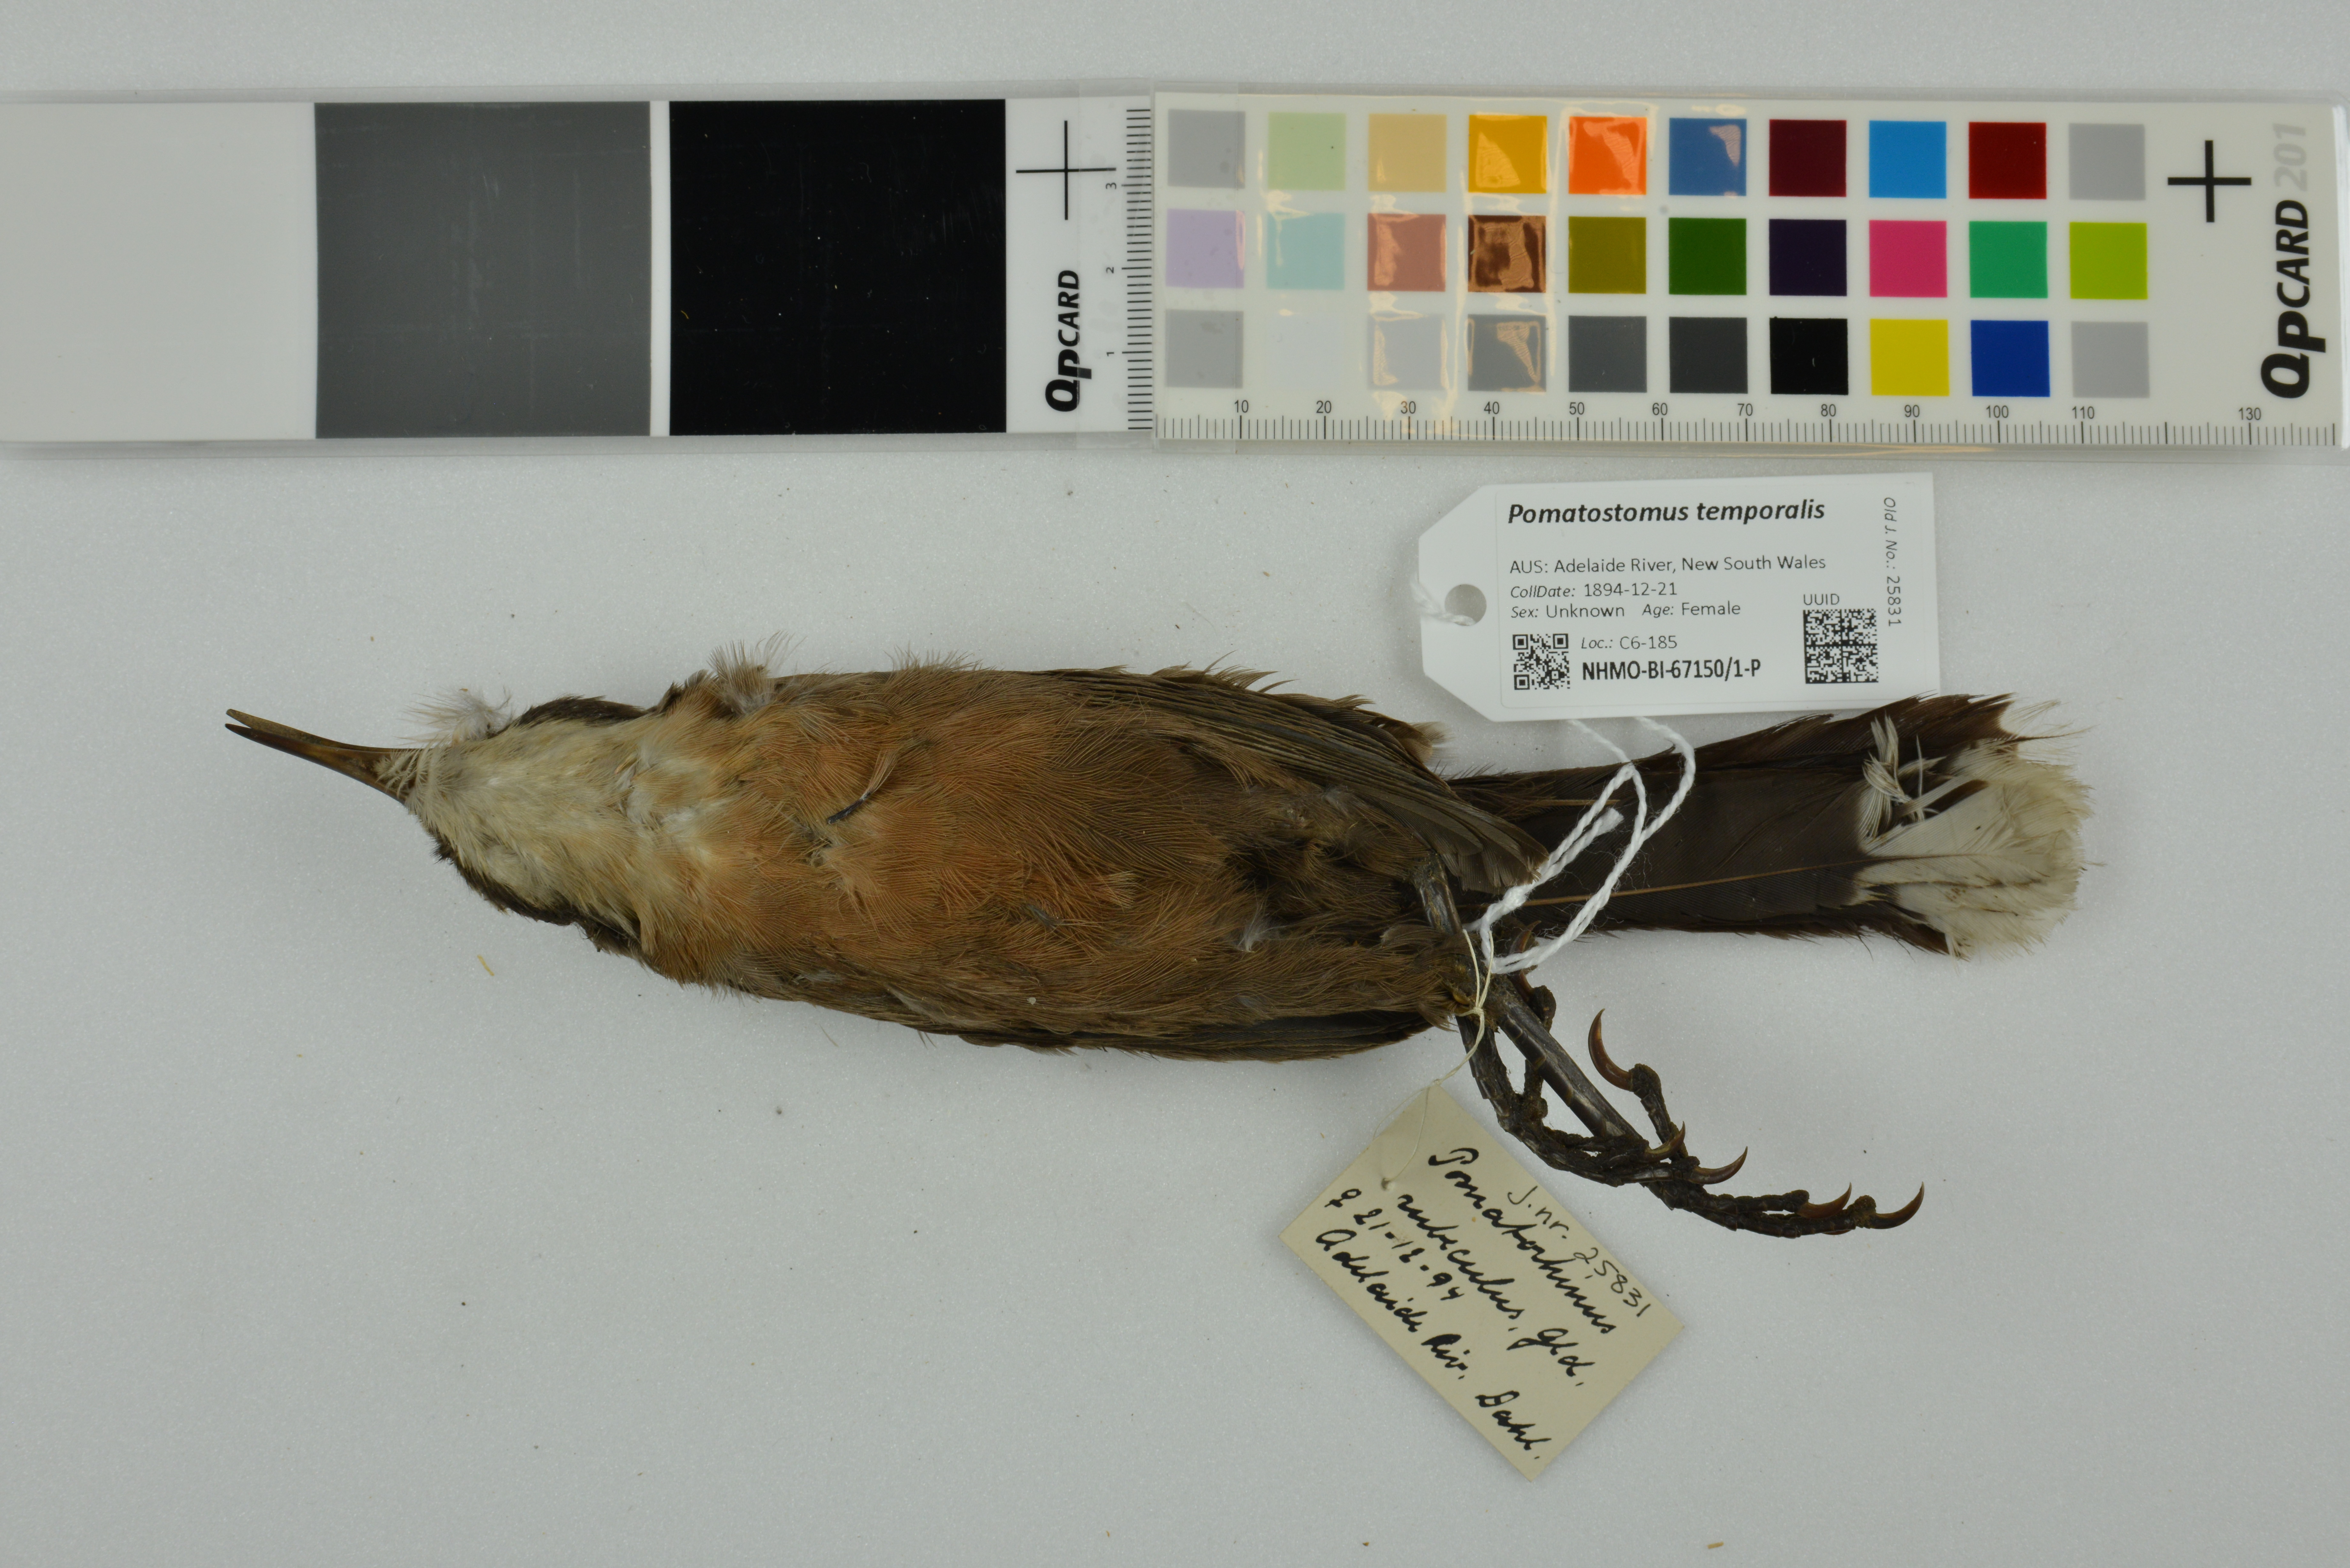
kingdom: Animalia
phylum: Chordata
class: Aves
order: Passeriformes
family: Pomatostomidae
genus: Pomatostomus
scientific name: Pomatostomus temporalis
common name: Grey-crowned babbler
